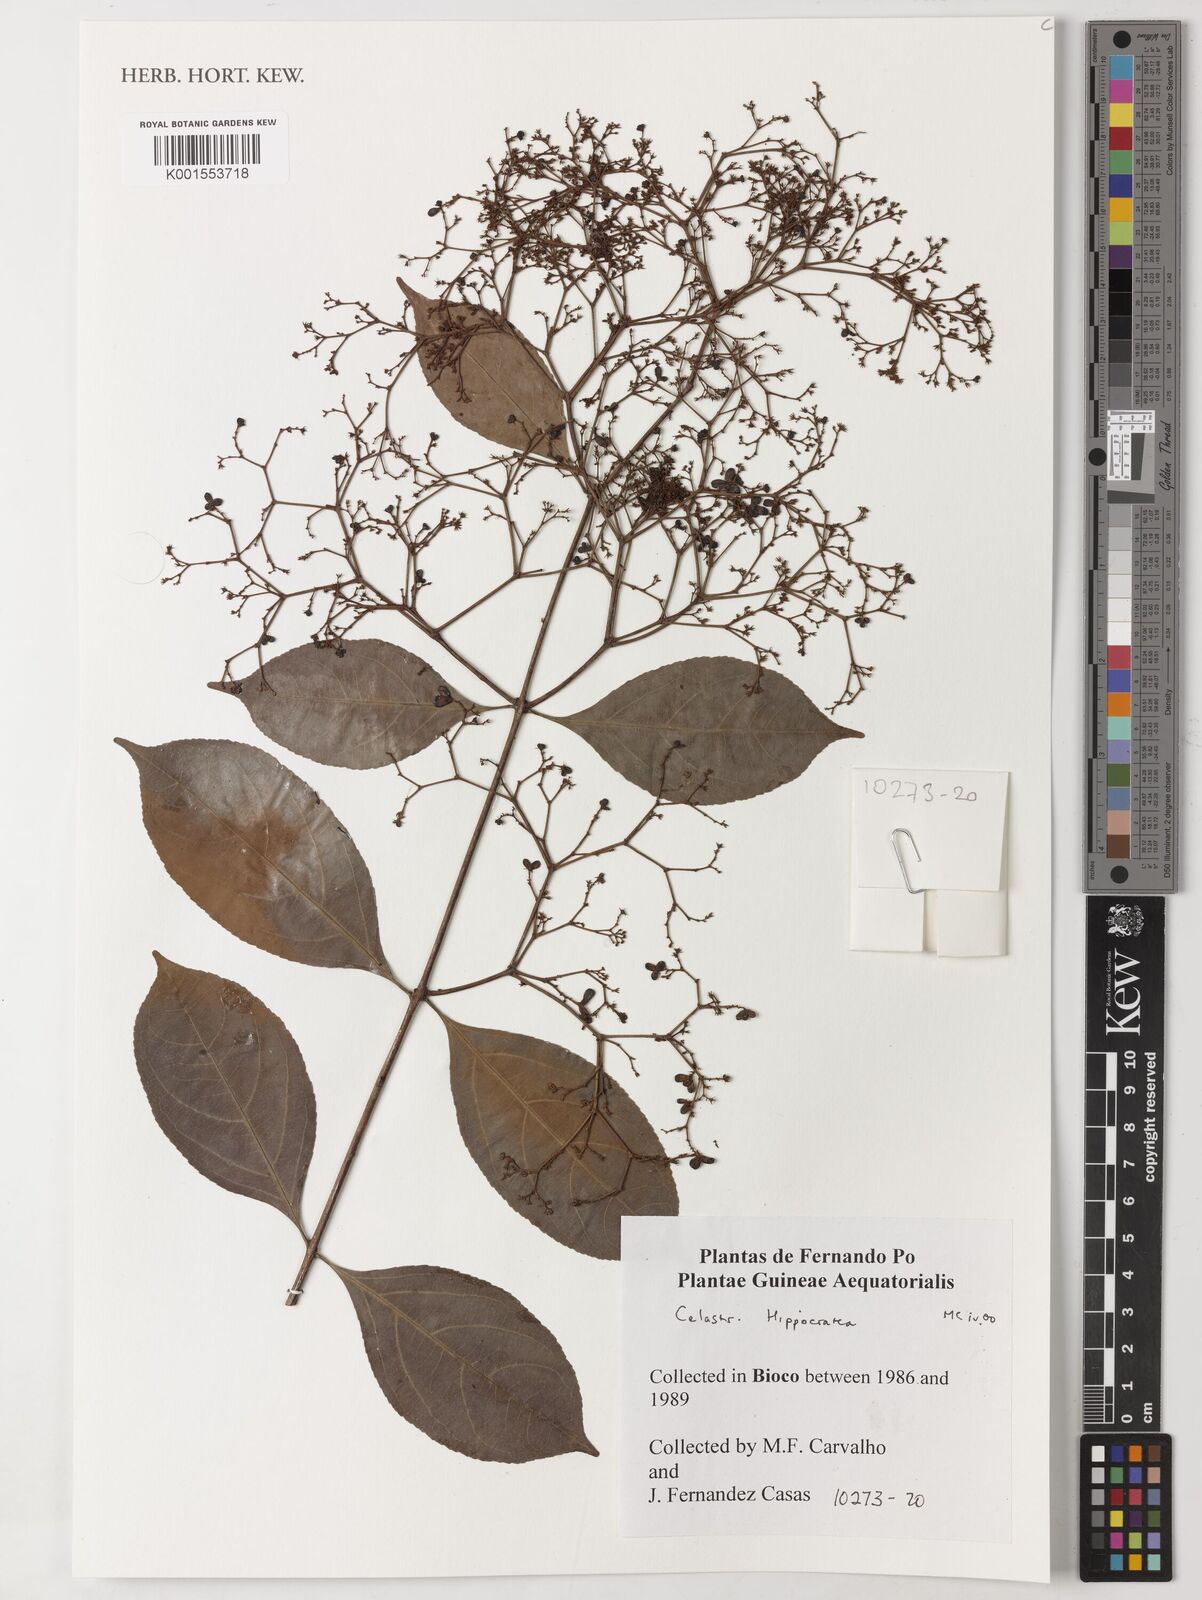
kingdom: Plantae
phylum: Tracheophyta
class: Magnoliopsida
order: Celastrales
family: Celastraceae
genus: Hippocratea
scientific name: Hippocratea
